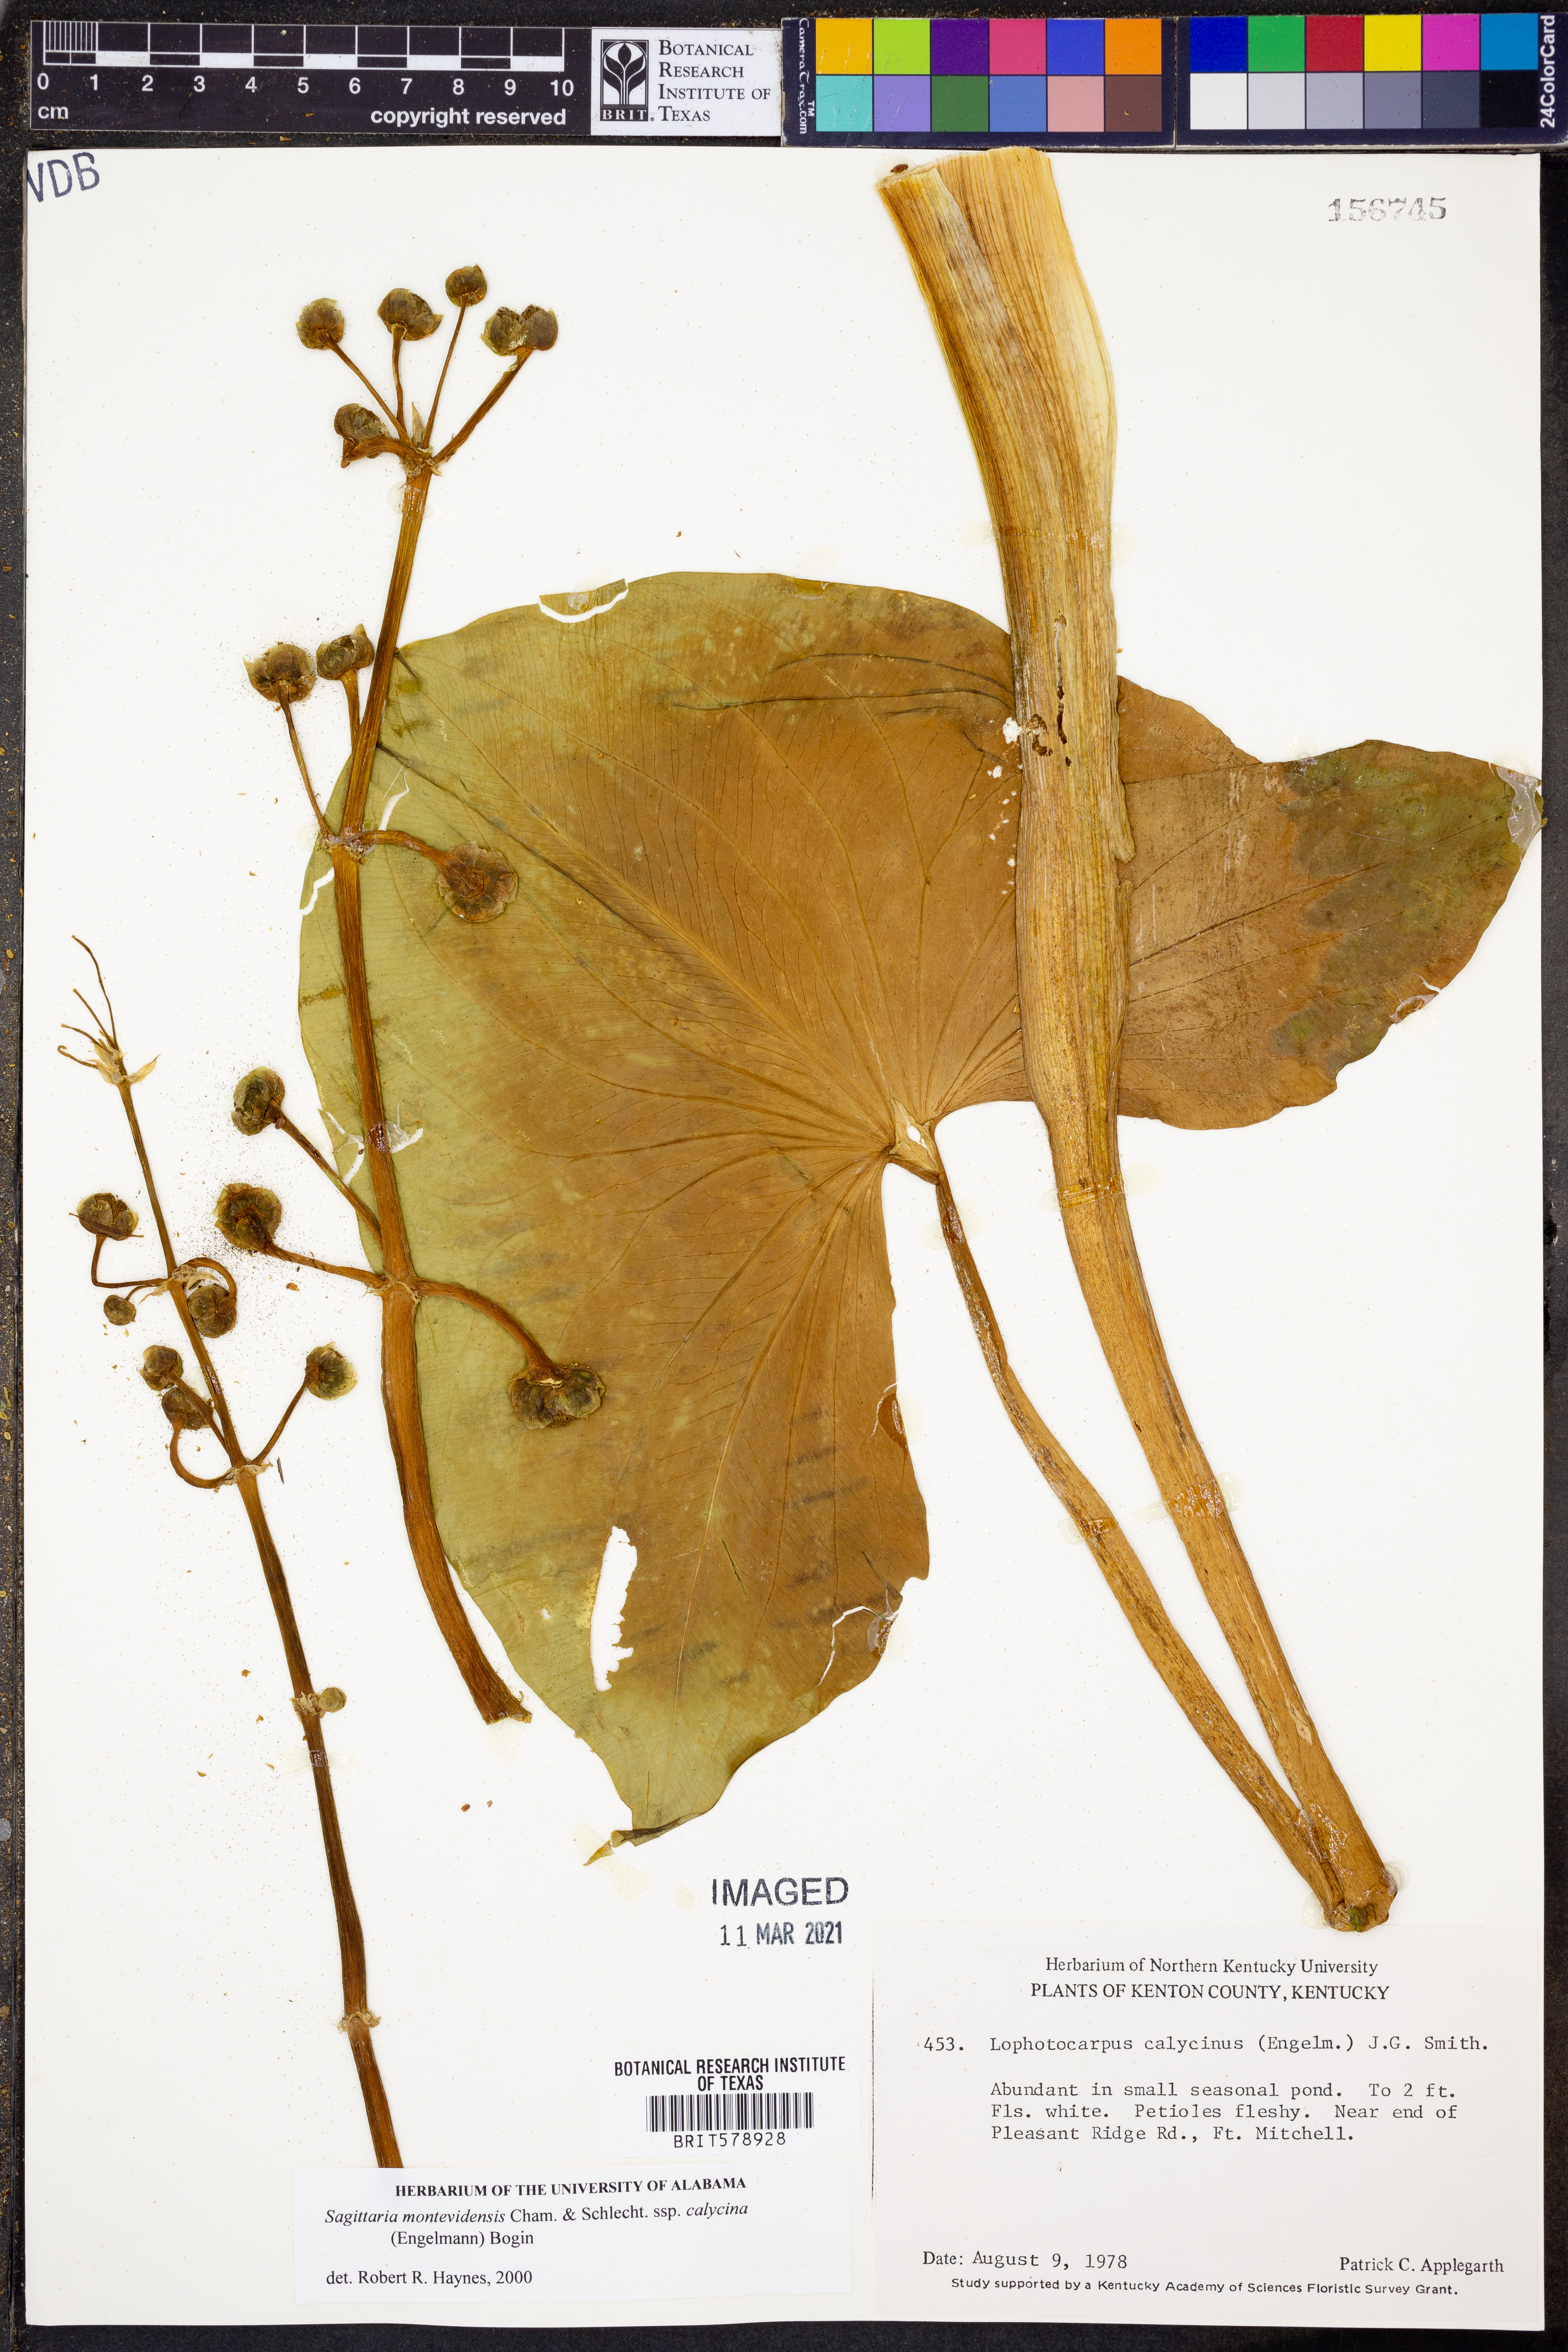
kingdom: Plantae
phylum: Tracheophyta
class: Liliopsida
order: Alismatales
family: Alismataceae
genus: Sagittaria
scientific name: Sagittaria montevidensis
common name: Giant arrowhead
